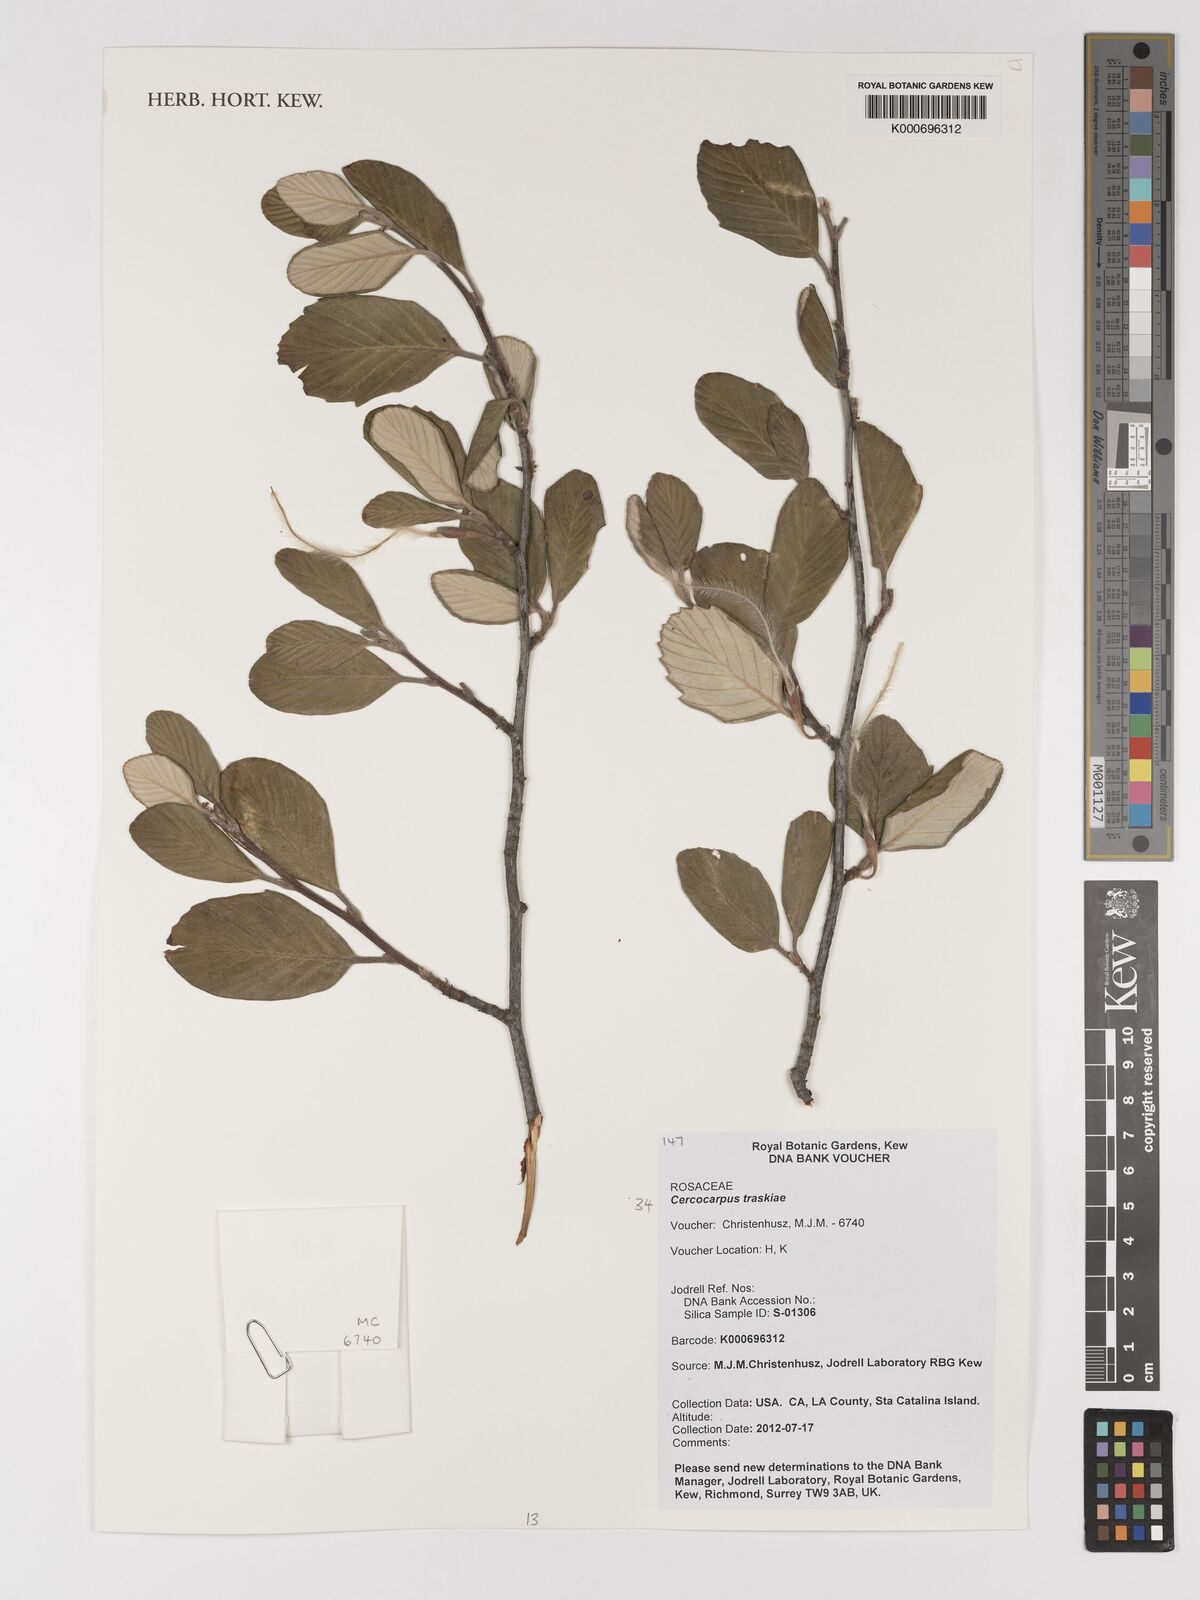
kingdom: Plantae
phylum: Tracheophyta
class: Magnoliopsida
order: Rosales
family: Rosaceae
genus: Cercocarpus
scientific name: Cercocarpus betuloides
